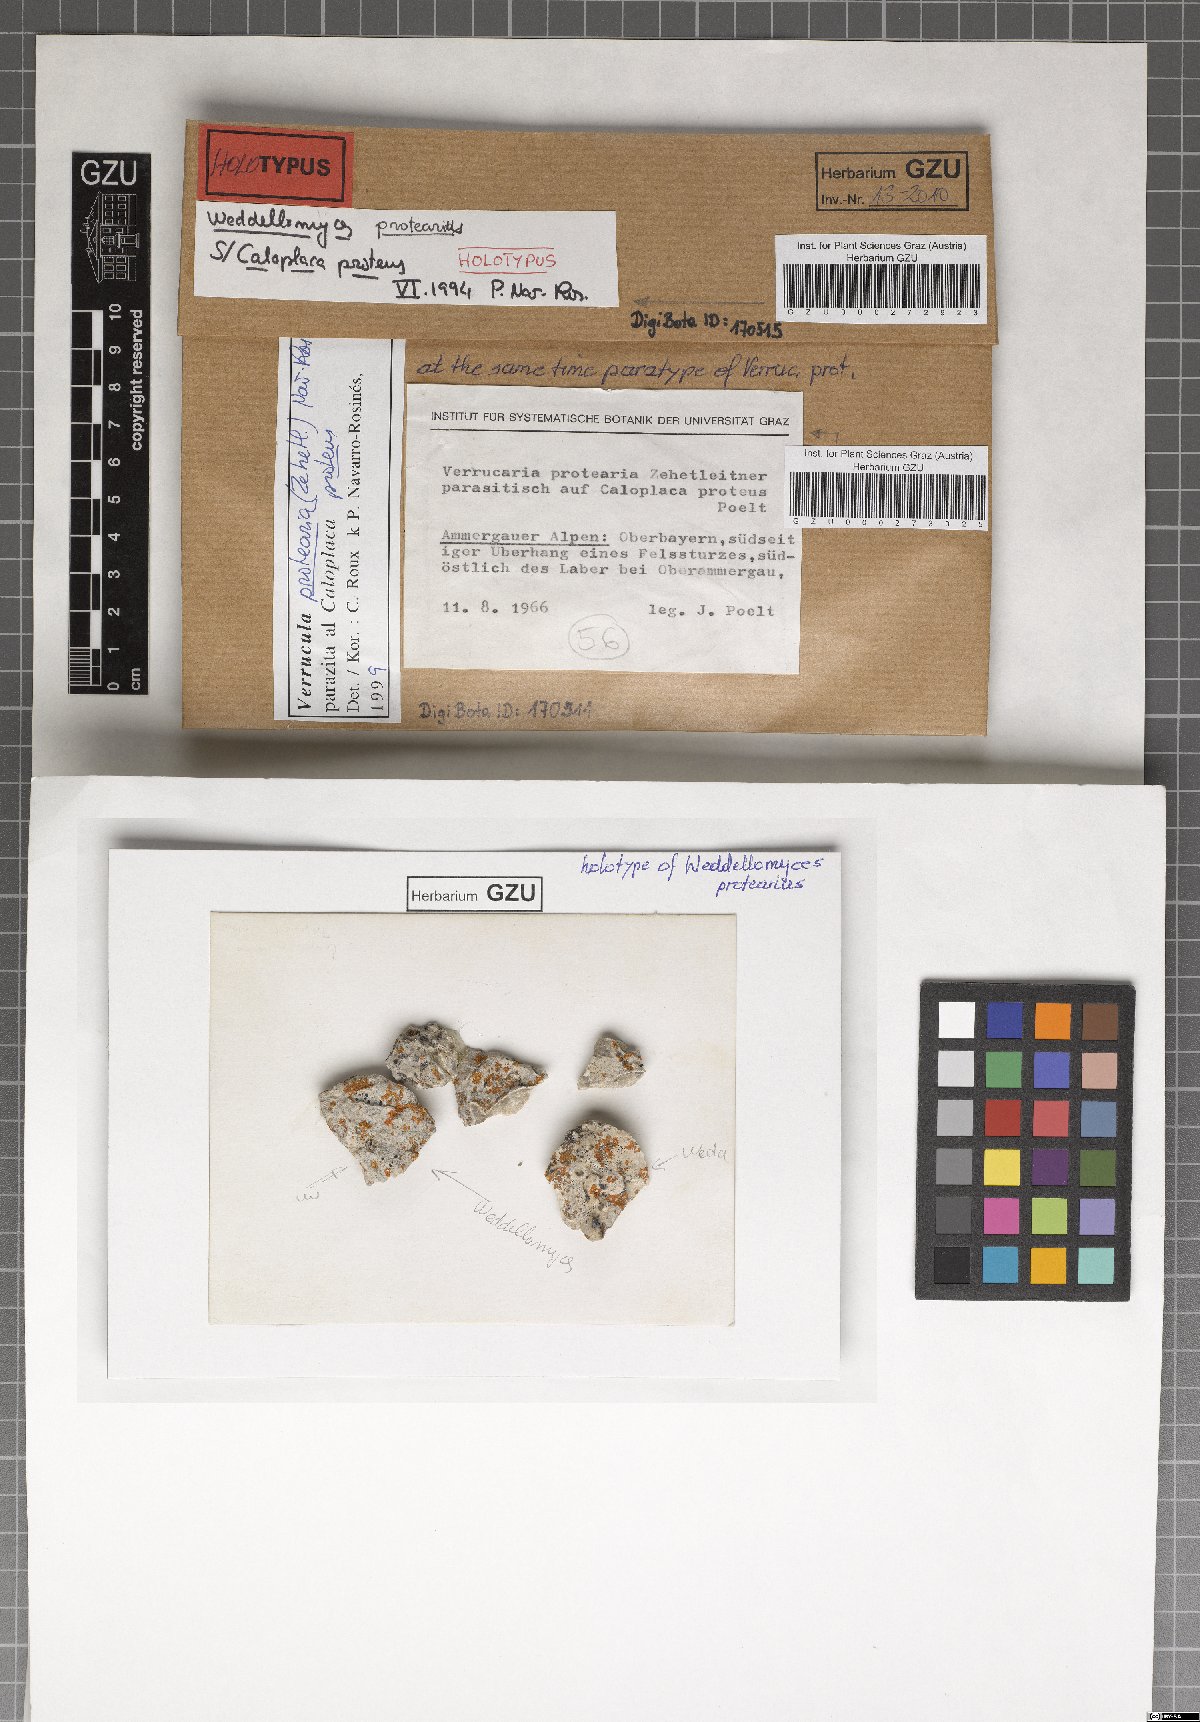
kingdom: Fungi
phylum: Ascomycota
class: Dothideomycetes
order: Pleosporales
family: Dacampiaceae
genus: Weddellomyces
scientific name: Weddellomyces protearius
